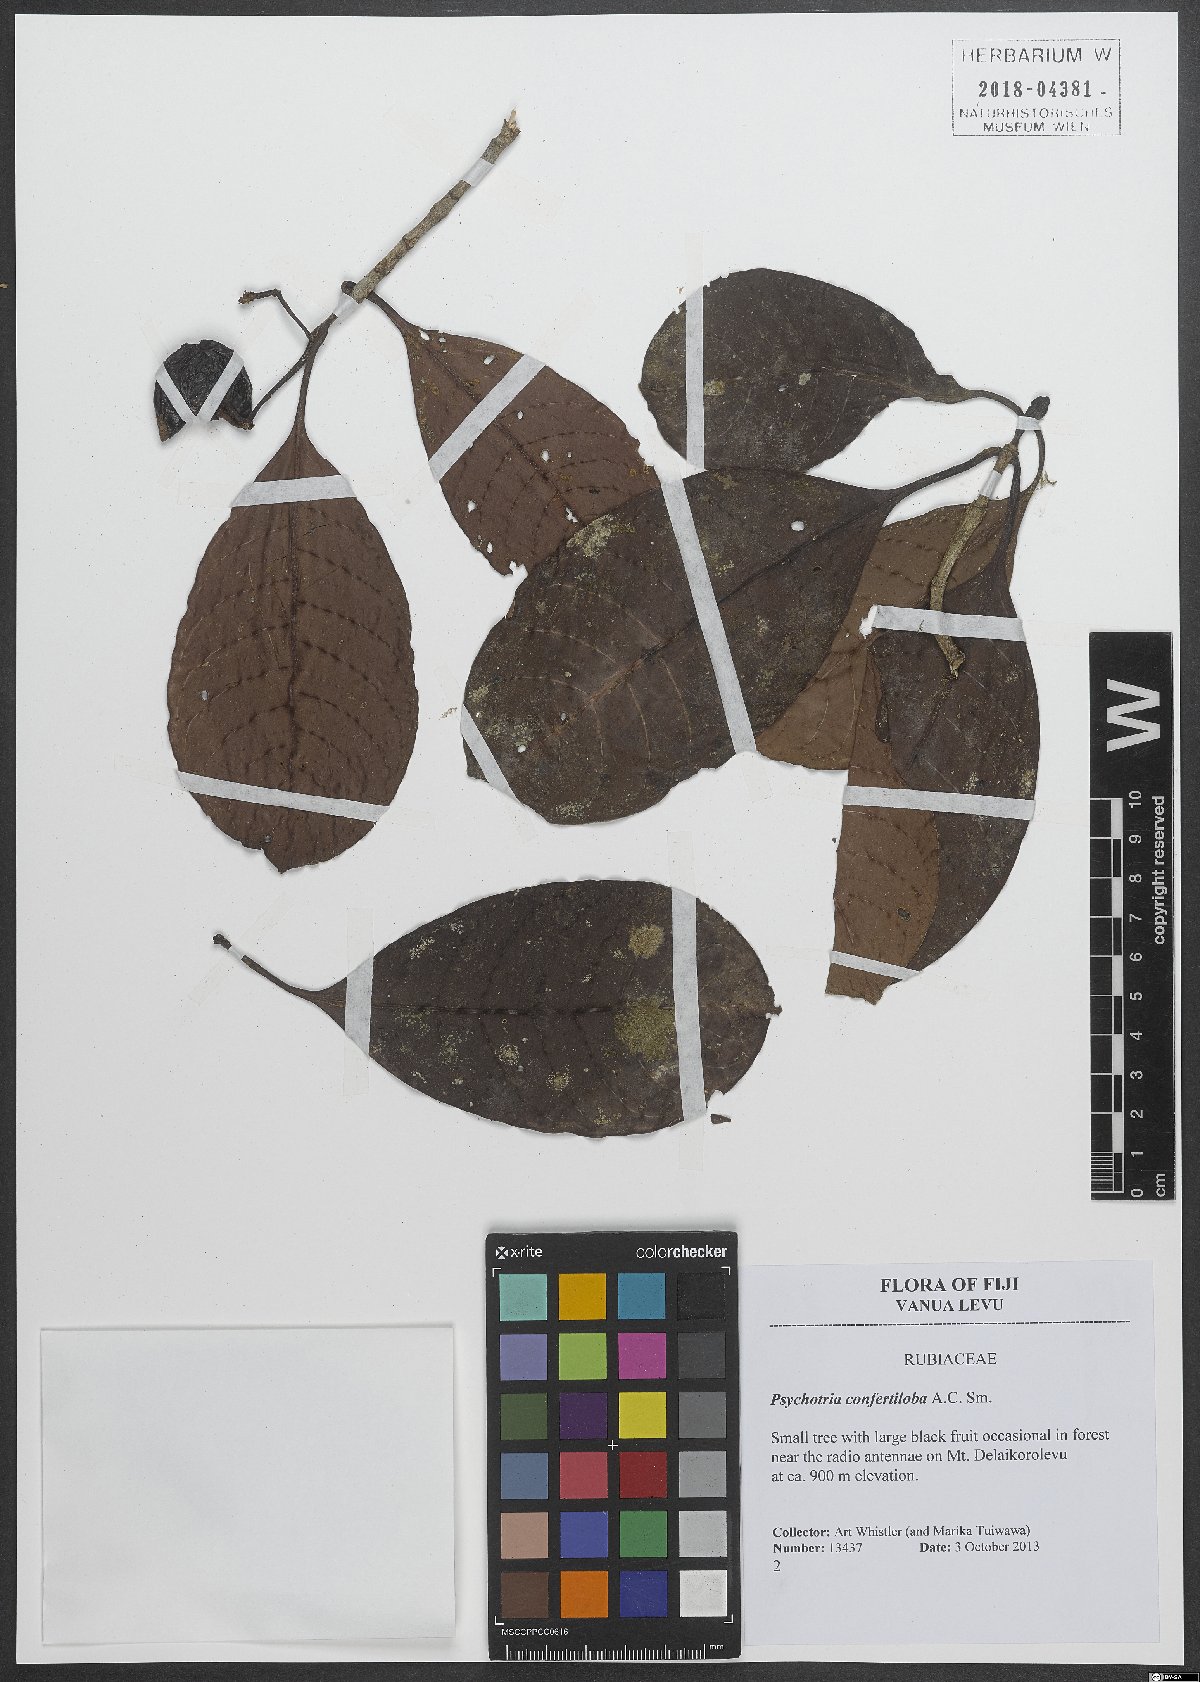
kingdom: Plantae
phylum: Tracheophyta
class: Magnoliopsida
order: Gentianales
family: Rubiaceae
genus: Psychotria
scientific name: Psychotria confertiloba
